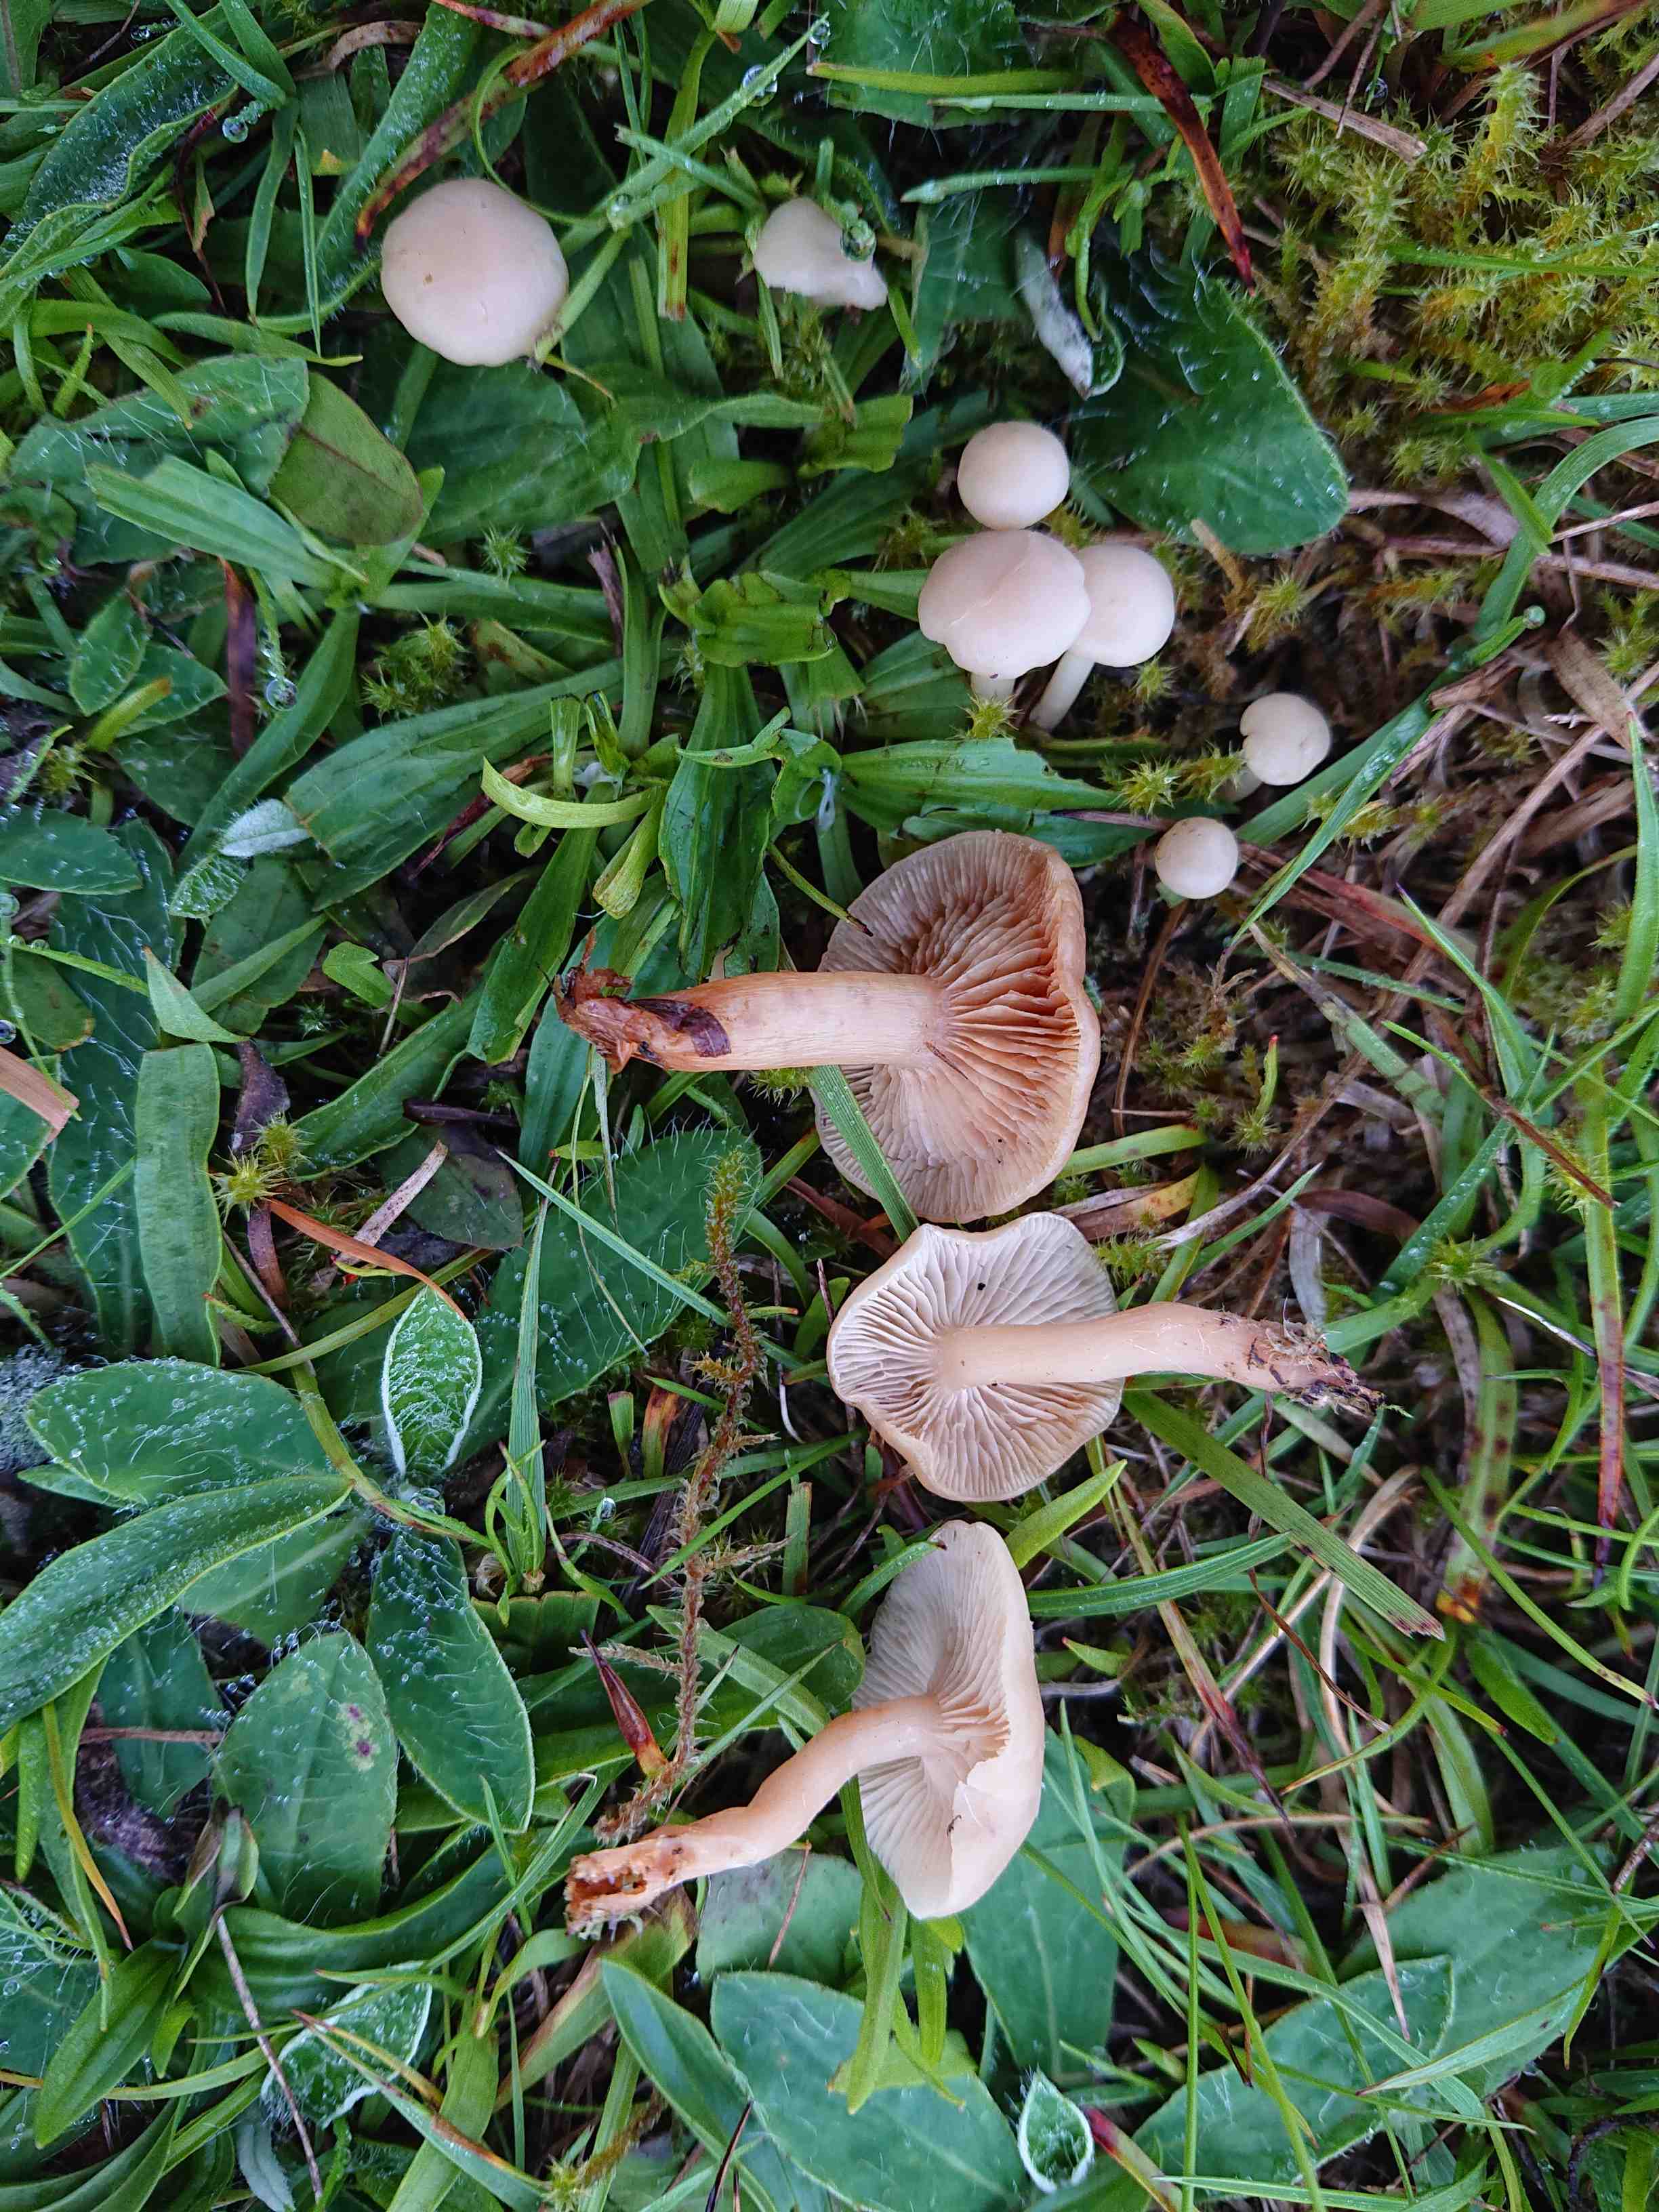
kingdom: Fungi
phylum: Basidiomycota
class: Agaricomycetes
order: Agaricales
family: Tricholomataceae
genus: Clitocybe
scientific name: Clitocybe rivulosa
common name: eng-tragthat
